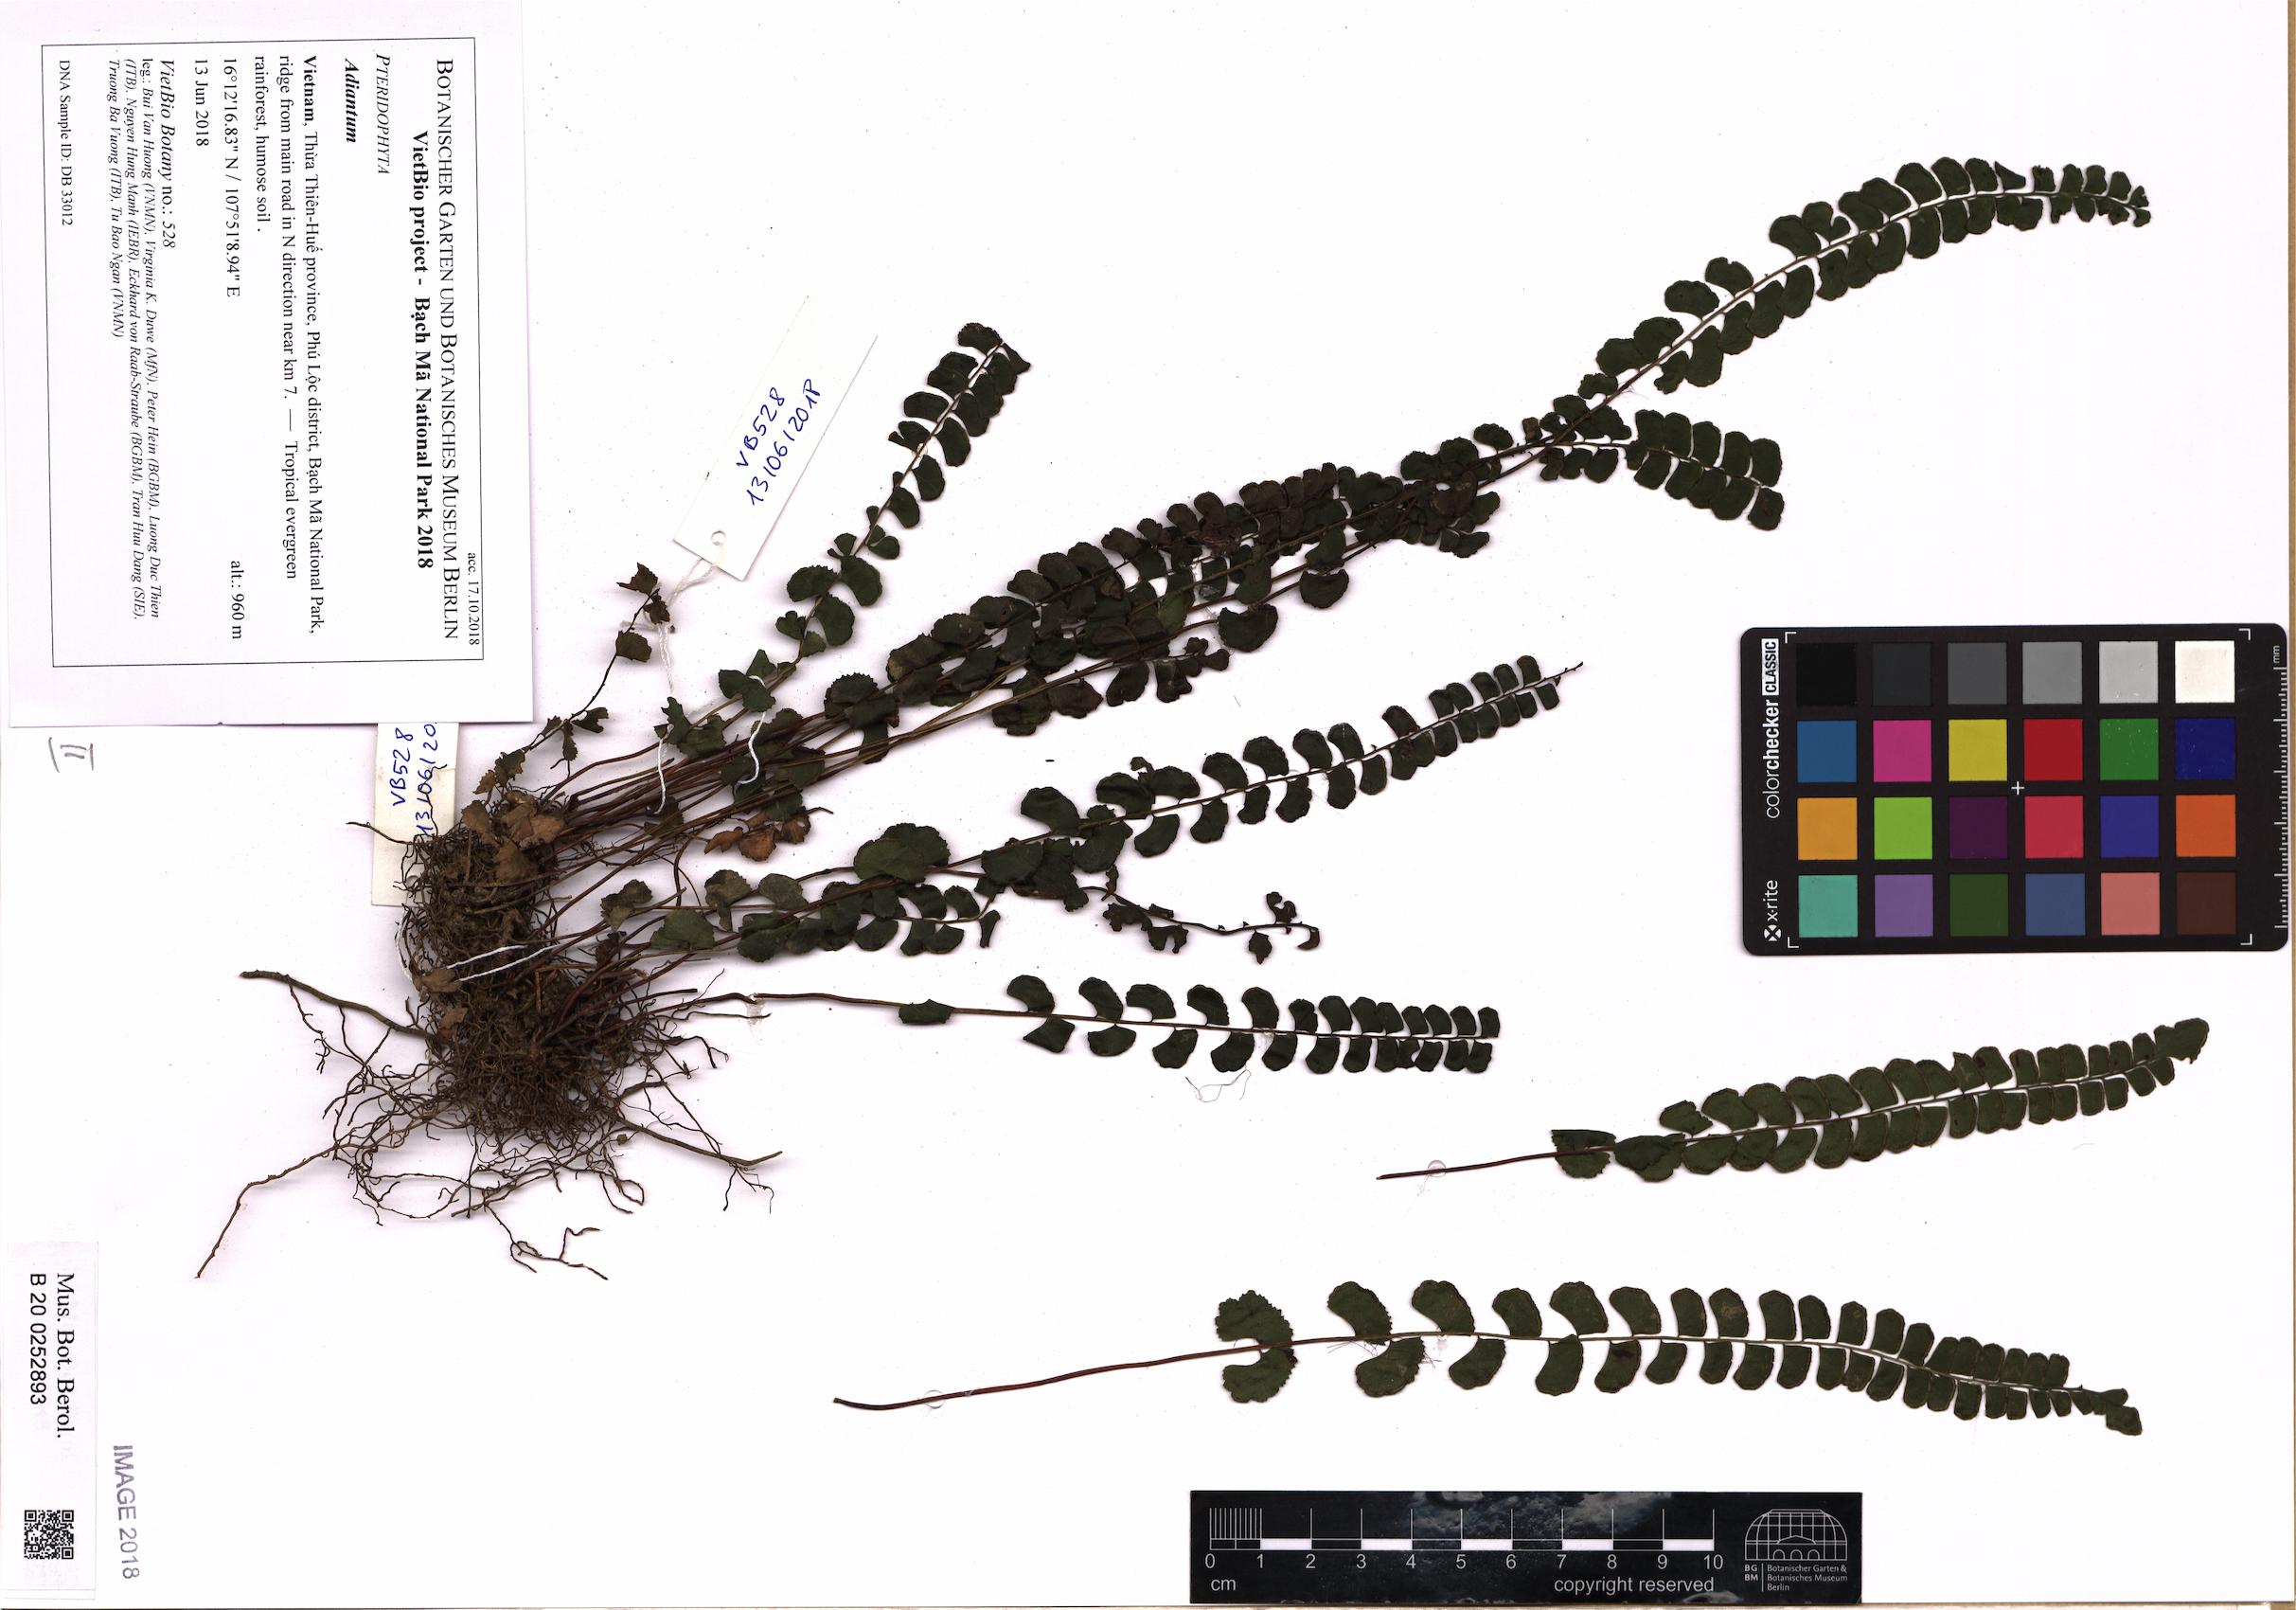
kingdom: Plantae
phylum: Tracheophyta
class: Polypodiopsida
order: Polypodiales
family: Pteridaceae
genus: Adiantum
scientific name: Adiantum
